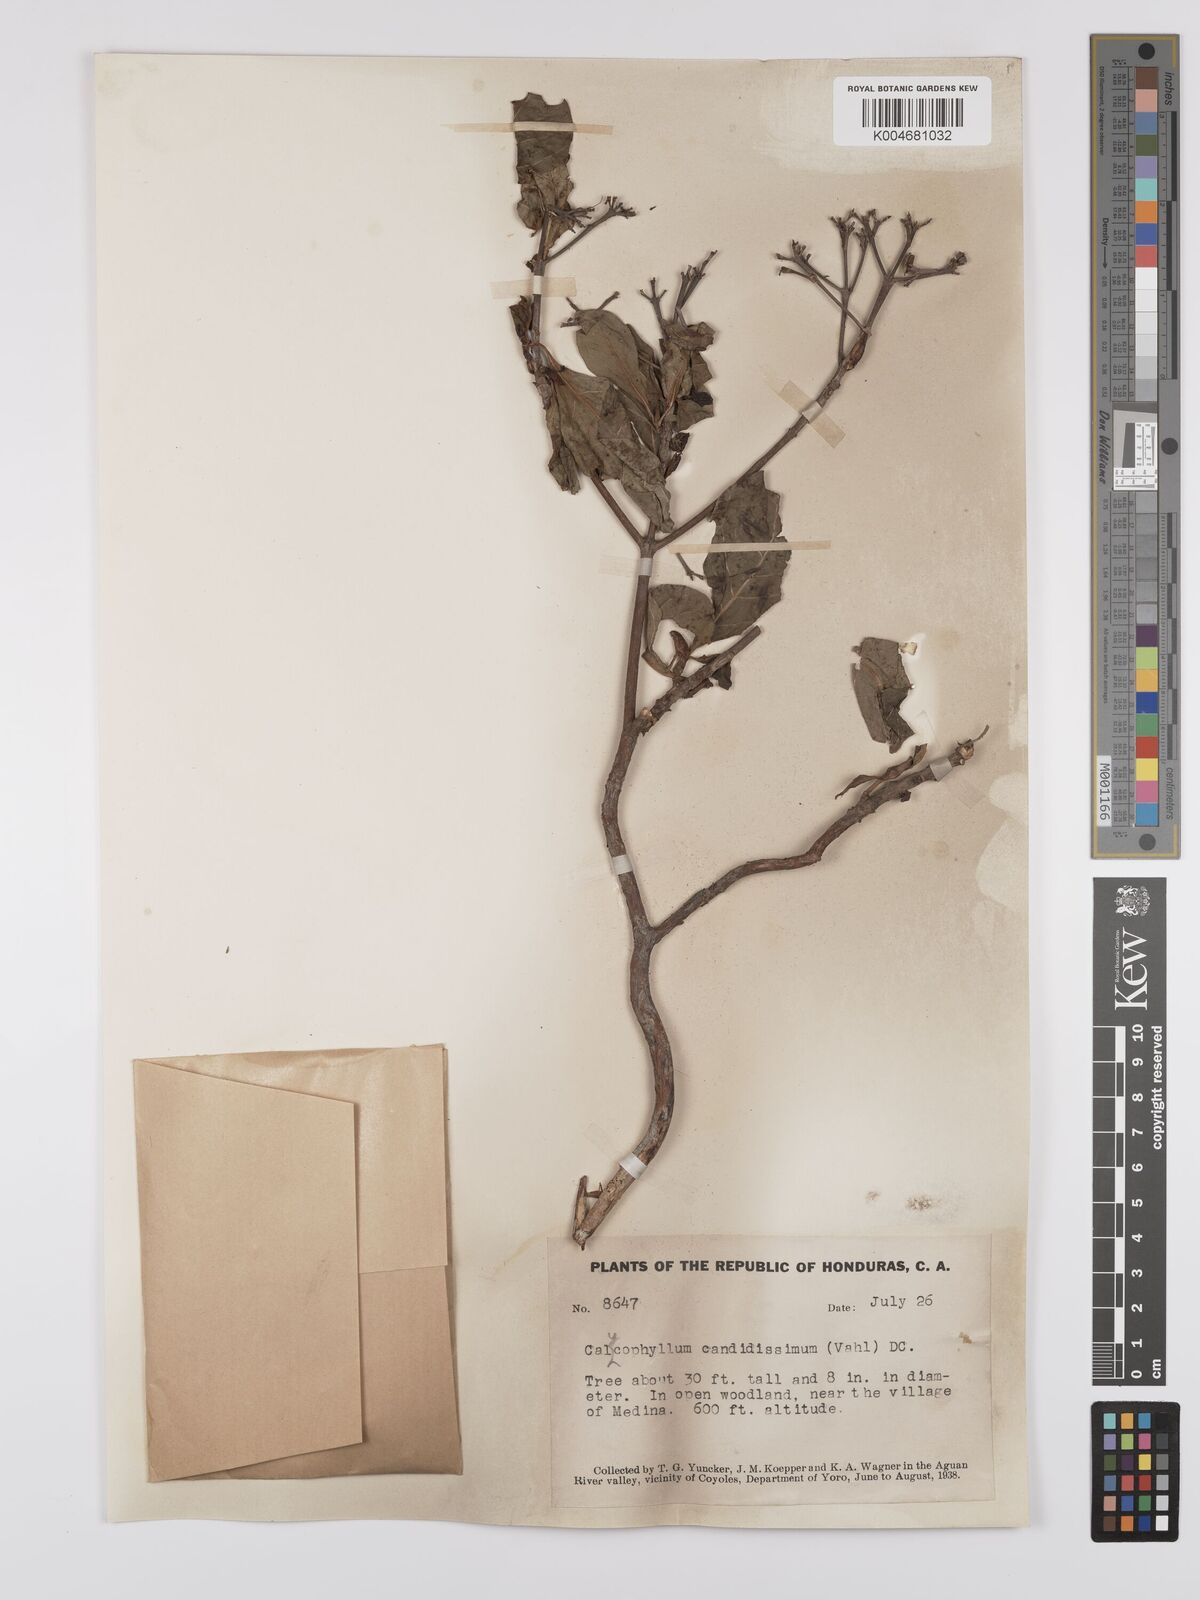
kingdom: Plantae
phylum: Tracheophyta
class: Magnoliopsida
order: Gentianales
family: Rubiaceae
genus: Calycophyllum
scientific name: Calycophyllum candidissimum
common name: Dagame
